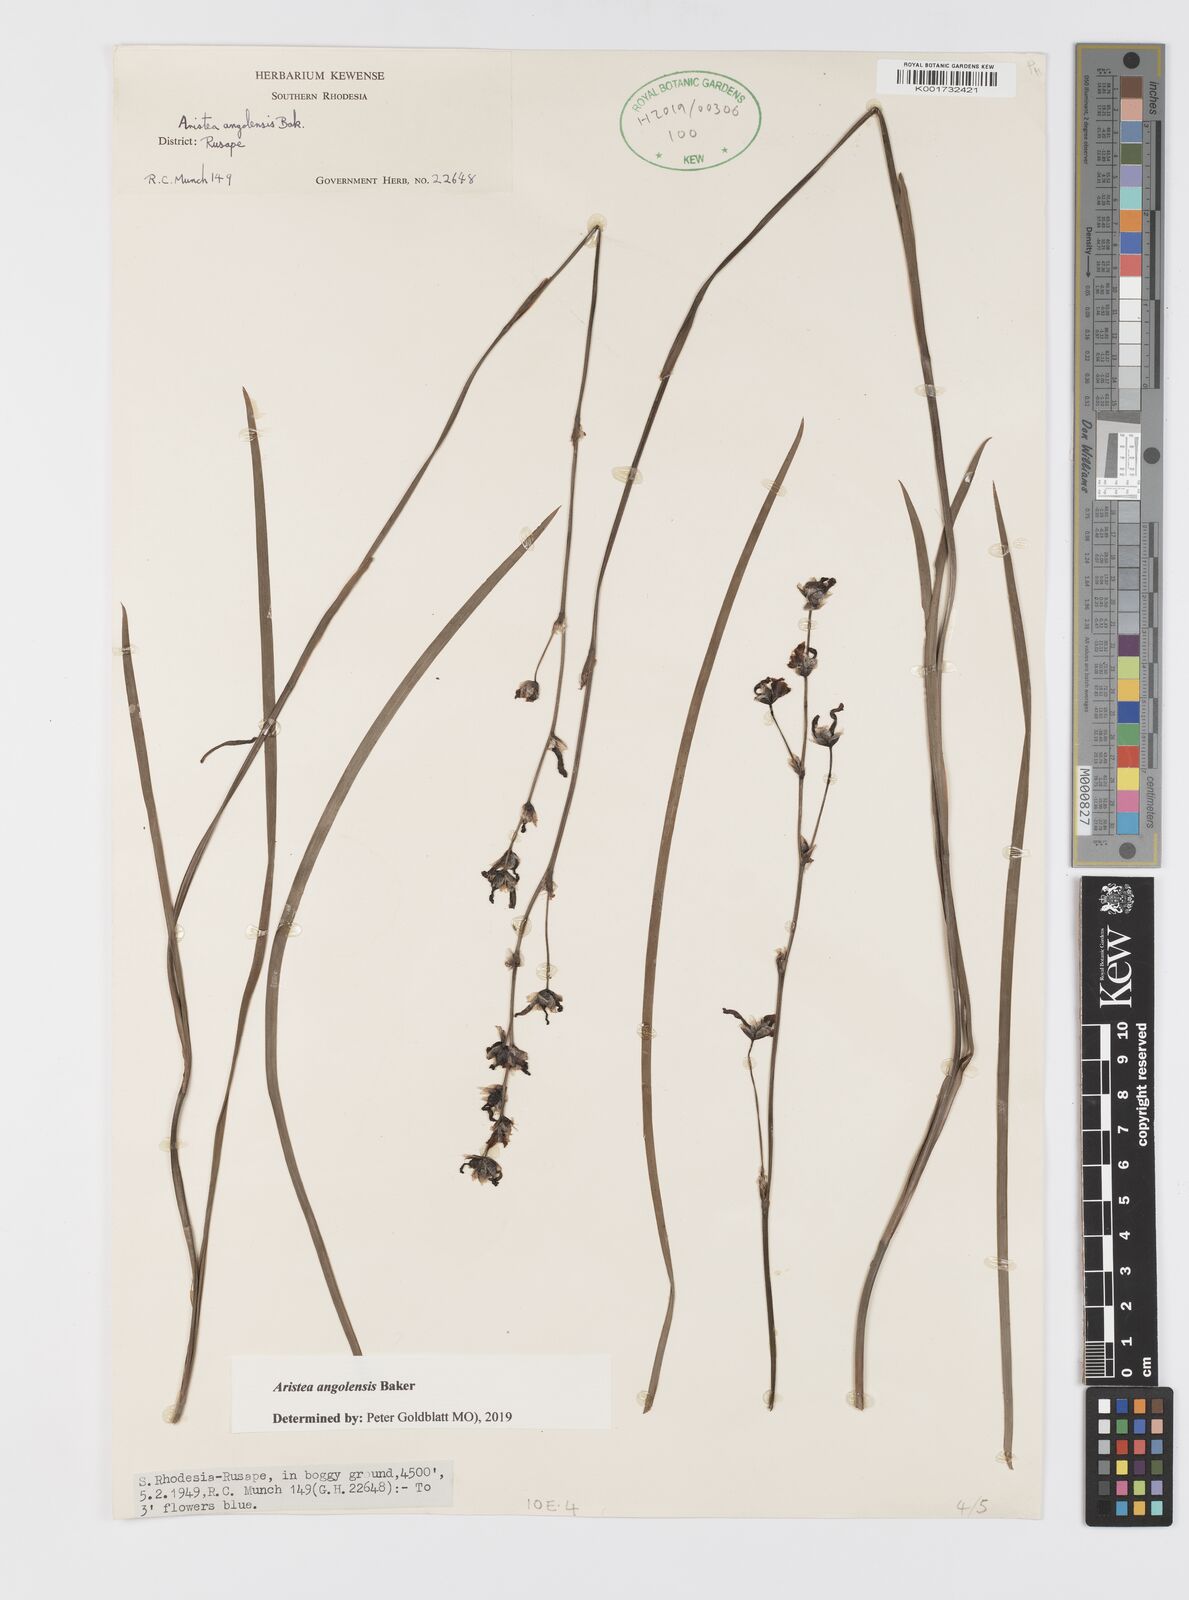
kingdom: Plantae
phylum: Tracheophyta
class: Liliopsida
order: Asparagales
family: Iridaceae
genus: Aristea
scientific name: Aristea angolensis
